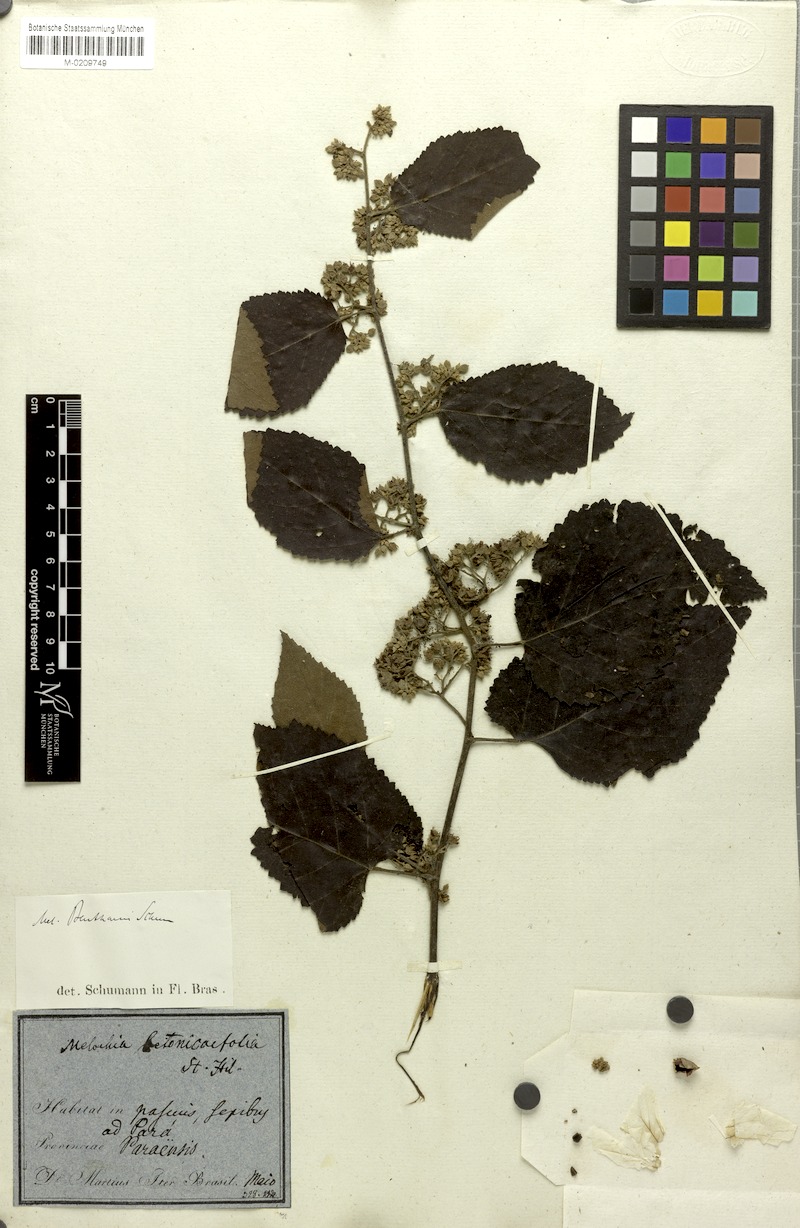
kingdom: Plantae
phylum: Tracheophyta
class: Magnoliopsida
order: Malvales
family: Malvaceae
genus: Melochia
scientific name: Melochia ulmifolia
